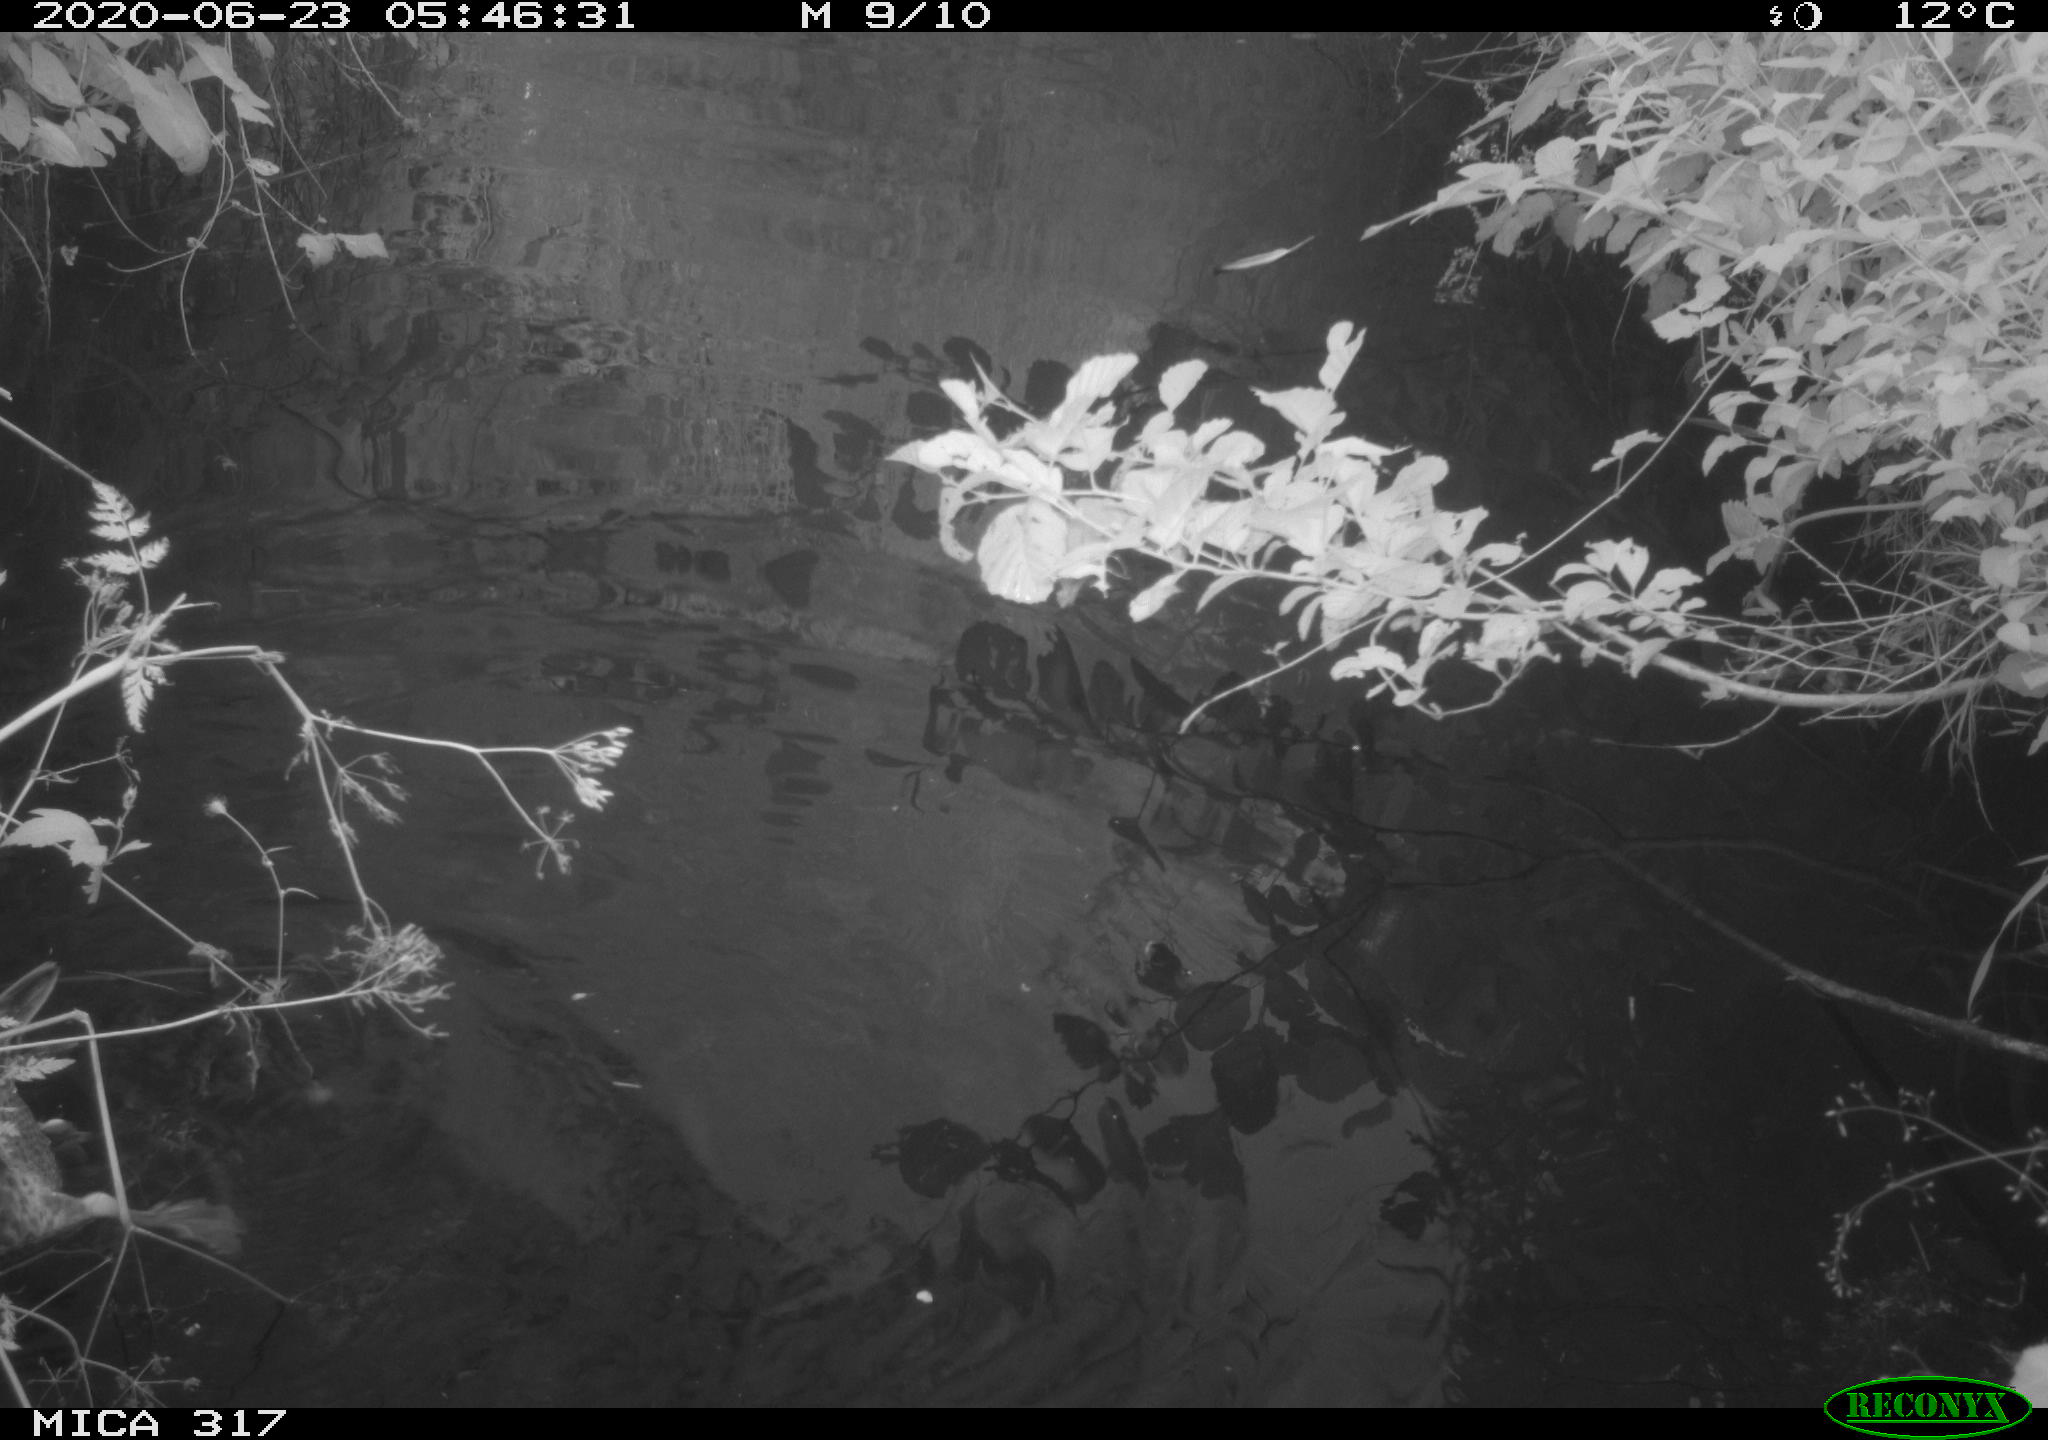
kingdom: Animalia
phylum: Chordata
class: Aves
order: Anseriformes
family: Anatidae
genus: Anas
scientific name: Anas platyrhynchos
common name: Mallard
